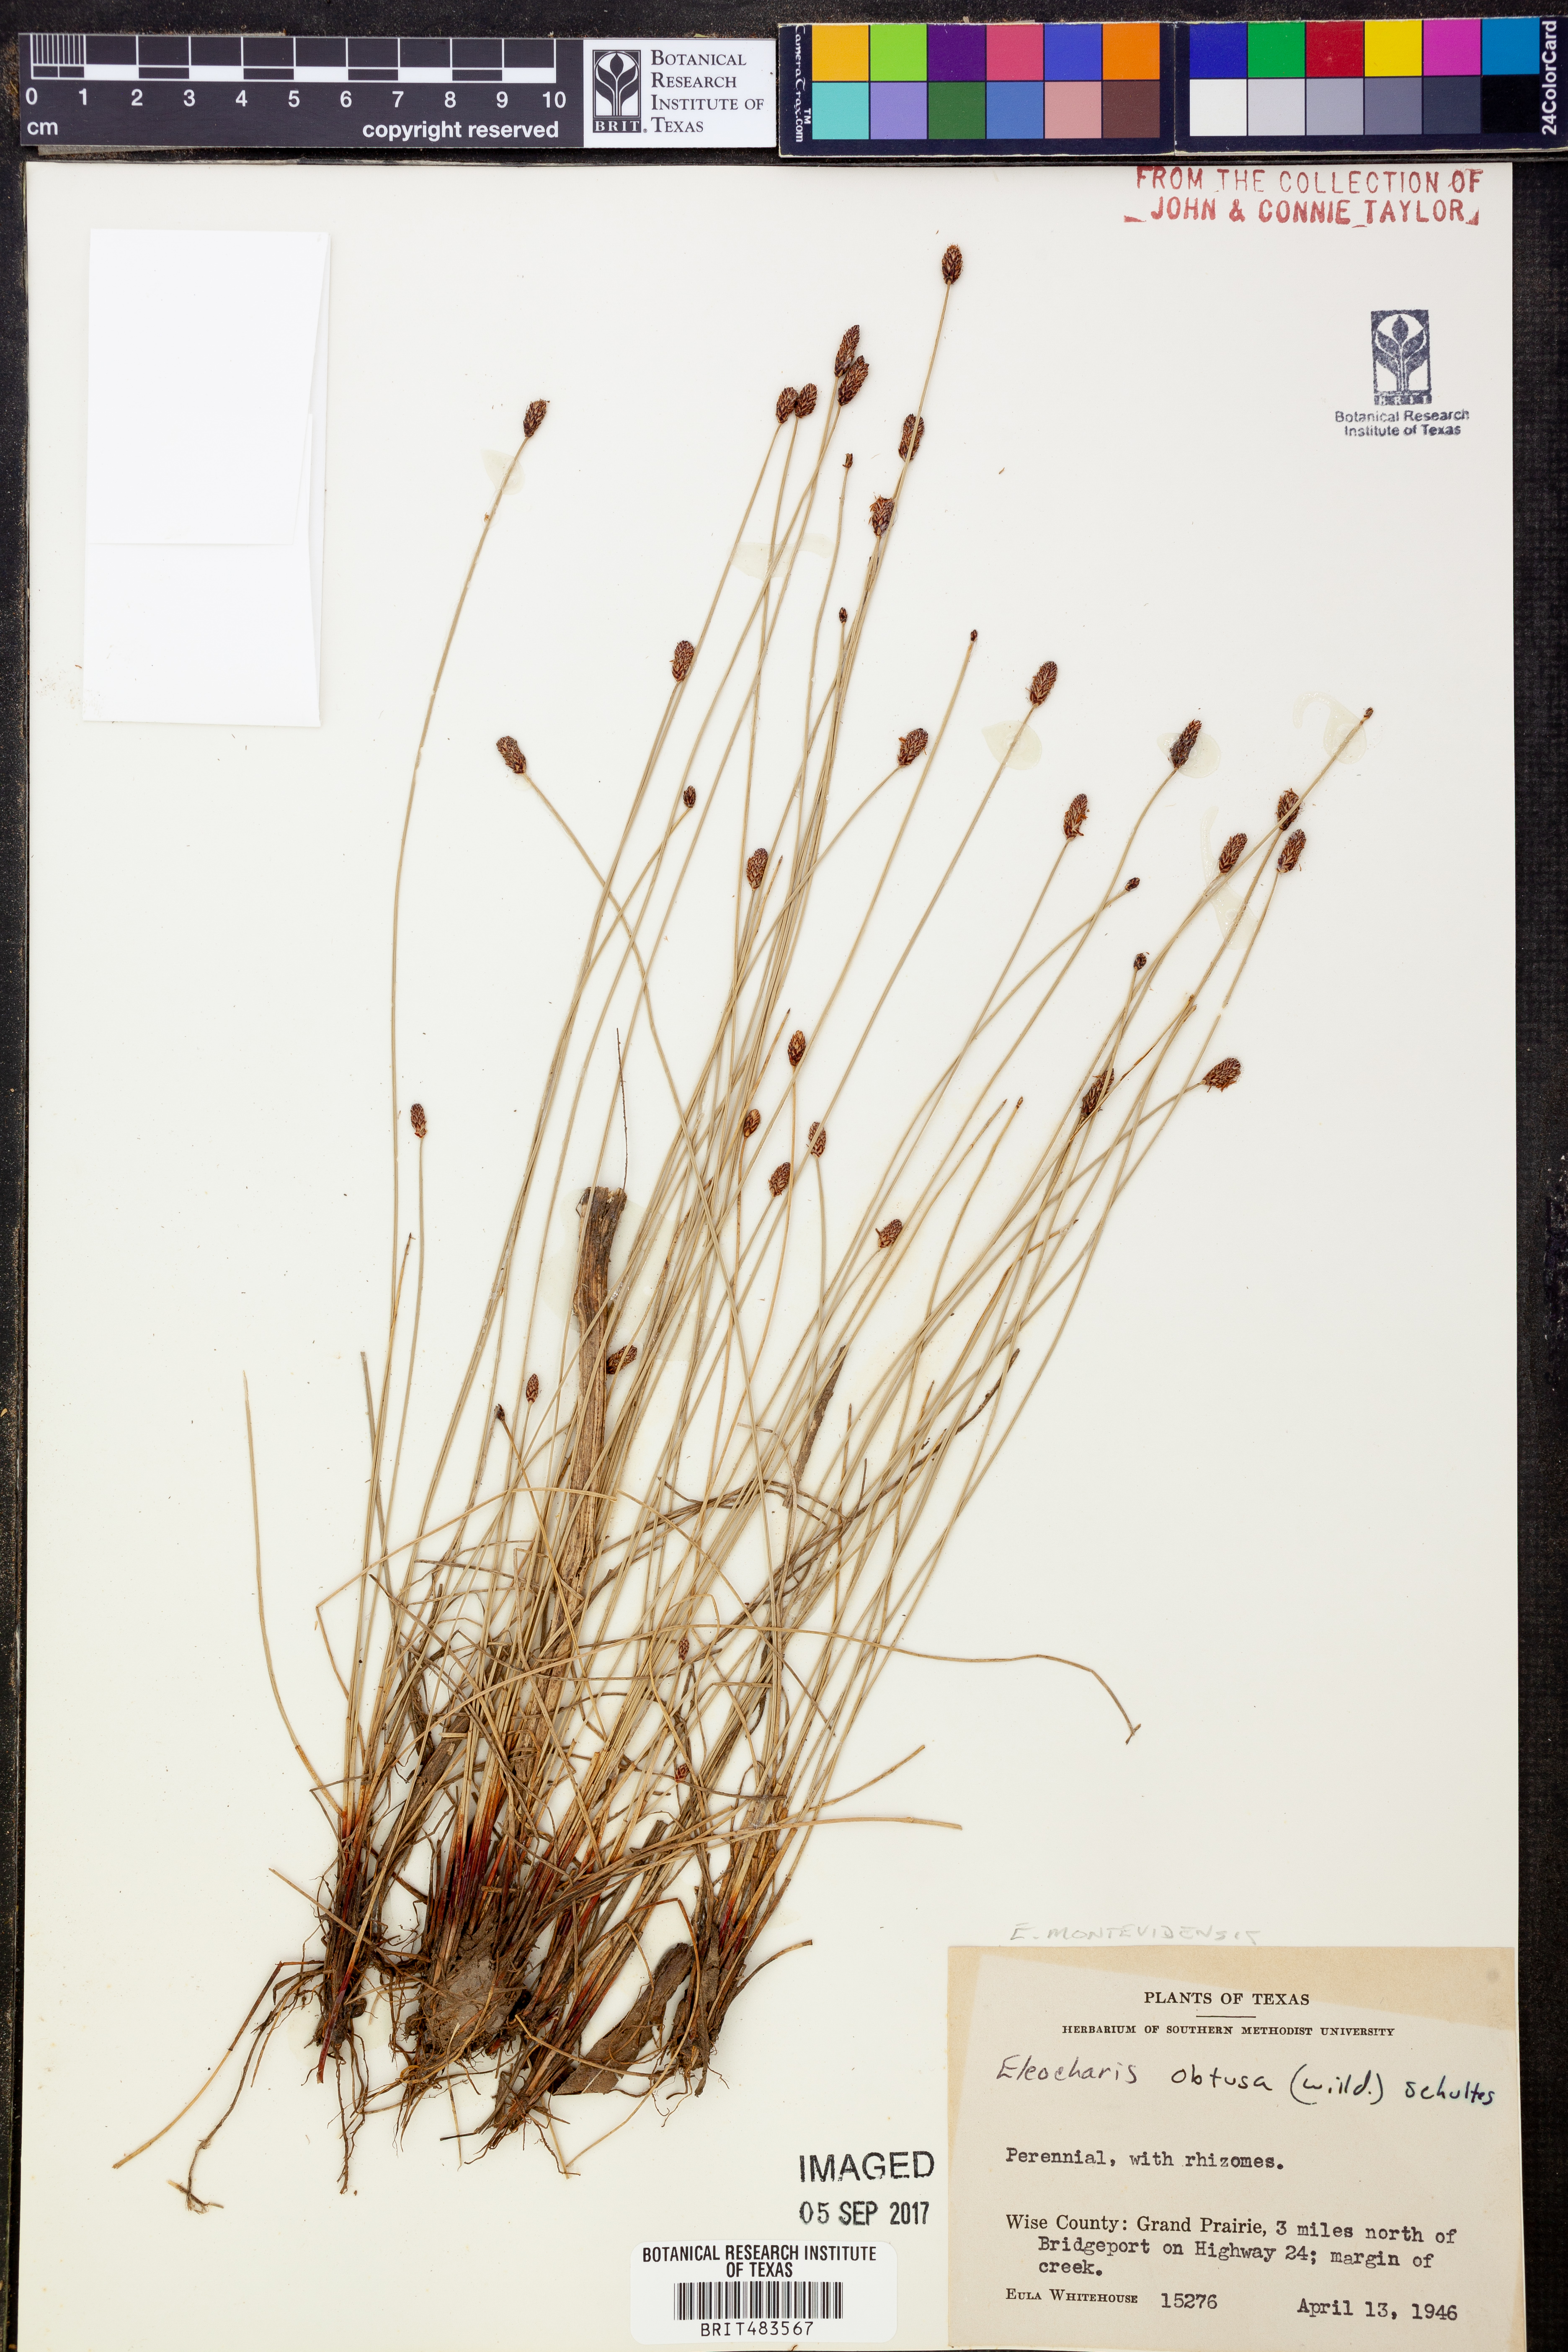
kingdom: Plantae
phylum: Tracheophyta
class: Liliopsida
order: Poales
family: Cyperaceae
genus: Eleocharis
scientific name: Eleocharis montevidensis
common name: Sand spike-rush
